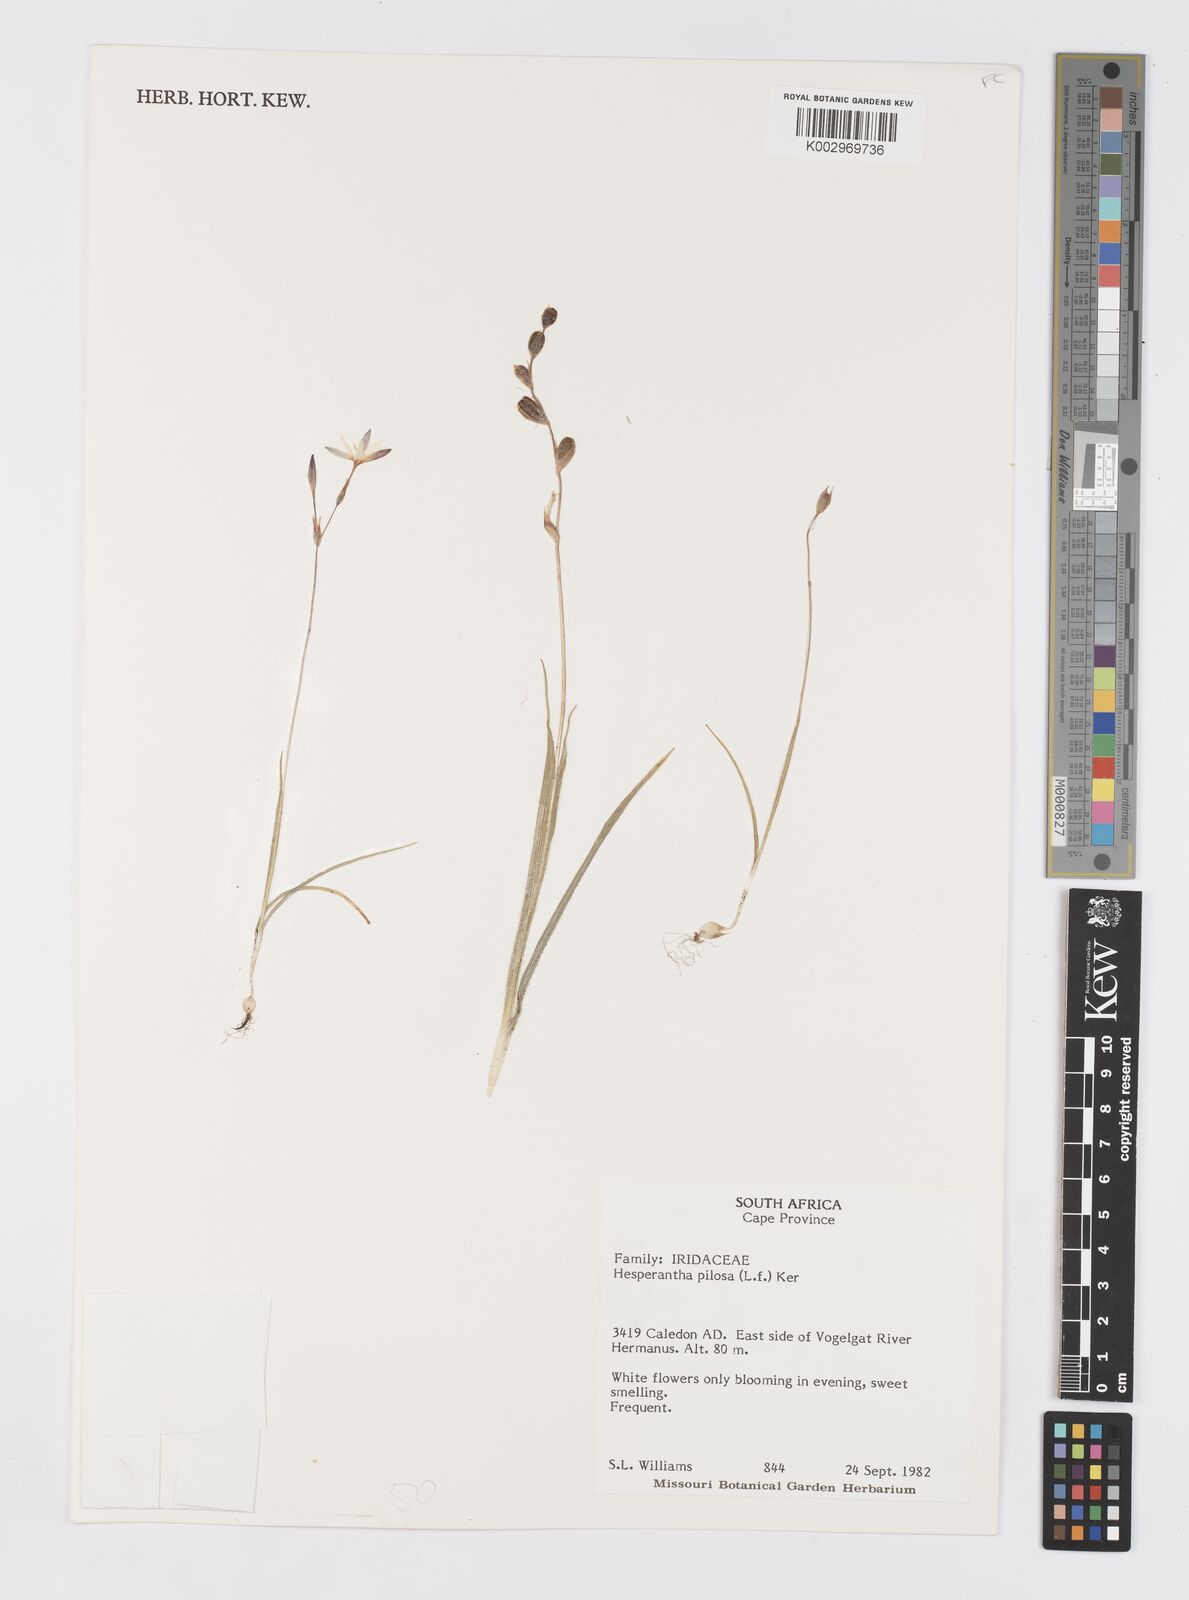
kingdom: Plantae
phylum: Tracheophyta
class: Liliopsida
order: Asparagales
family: Iridaceae
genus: Hesperantha
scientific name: Hesperantha pilosa
